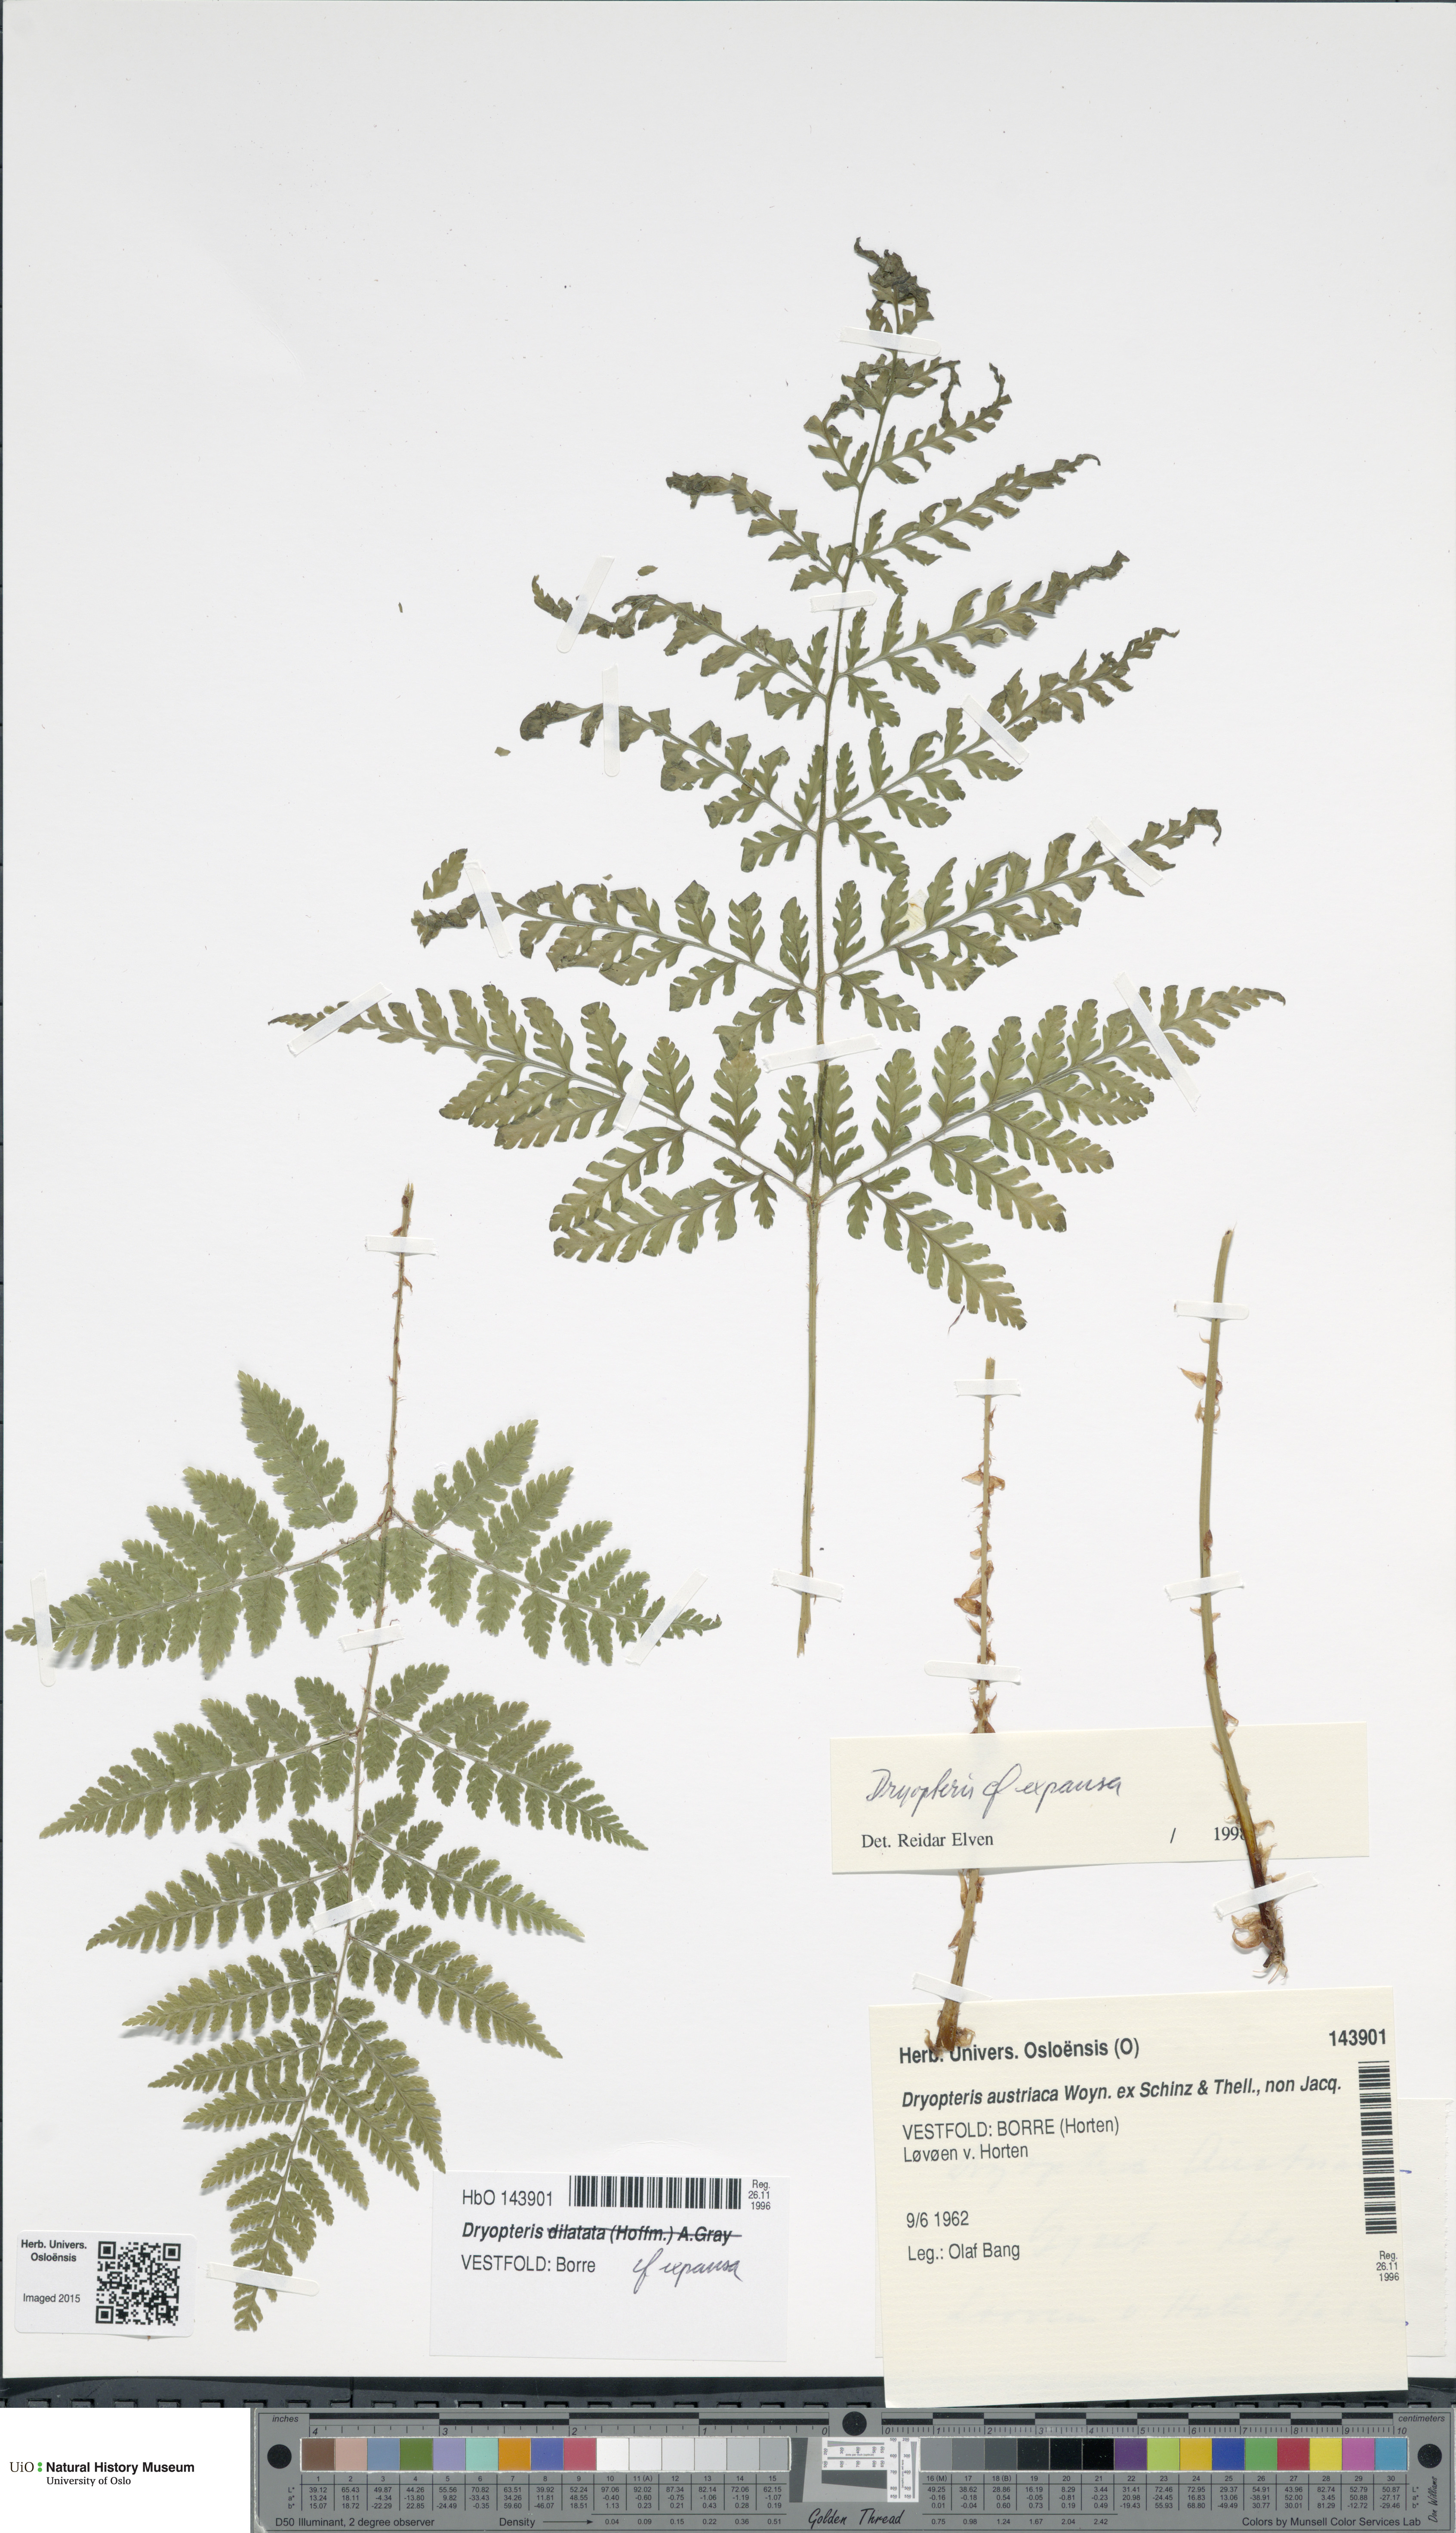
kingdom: Plantae
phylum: Tracheophyta
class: Polypodiopsida
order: Polypodiales
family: Dryopteridaceae
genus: Dryopteris
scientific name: Dryopteris dilatata
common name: Broad buckler-fern
